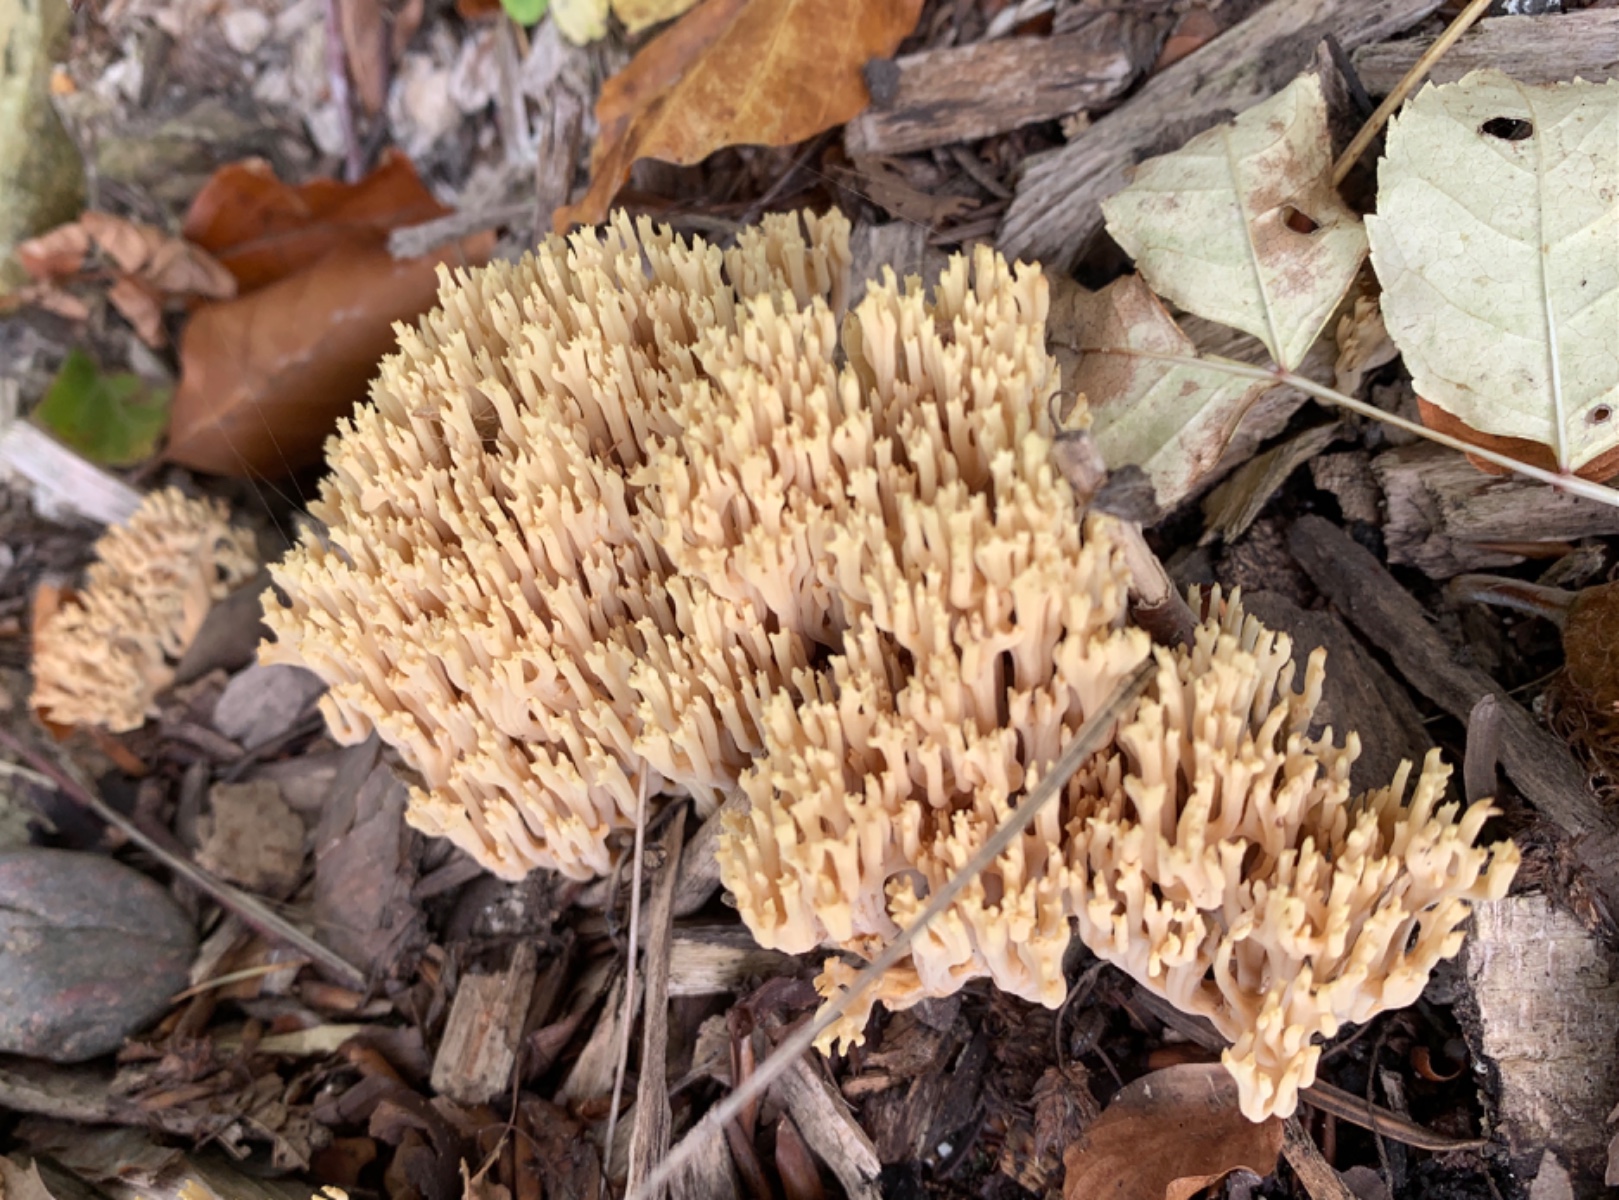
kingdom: Fungi
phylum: Basidiomycota
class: Agaricomycetes
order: Gomphales
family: Gomphaceae
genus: Ramaria
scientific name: Ramaria stricta
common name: rank koralsvamp
